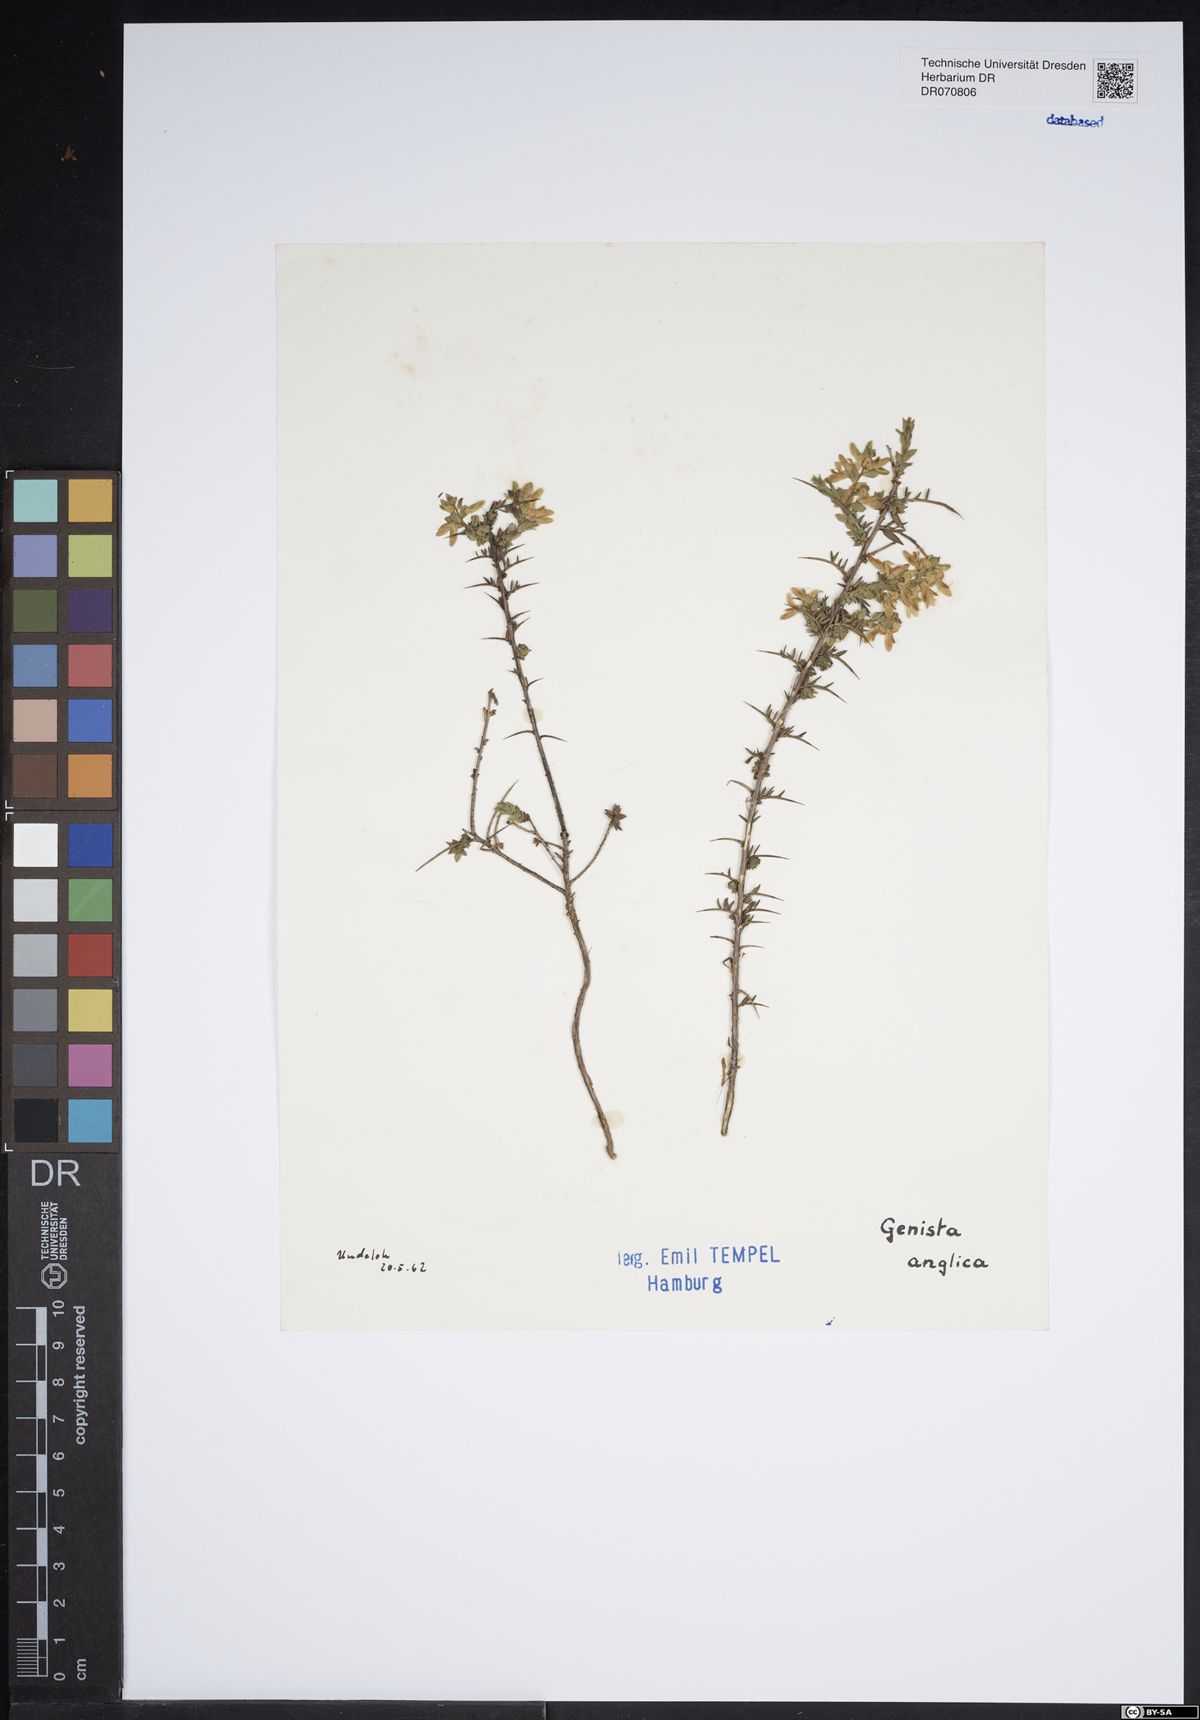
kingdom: Plantae
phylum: Tracheophyta
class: Magnoliopsida
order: Fabales
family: Fabaceae
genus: Genista
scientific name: Genista anglica
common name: Petty whin
